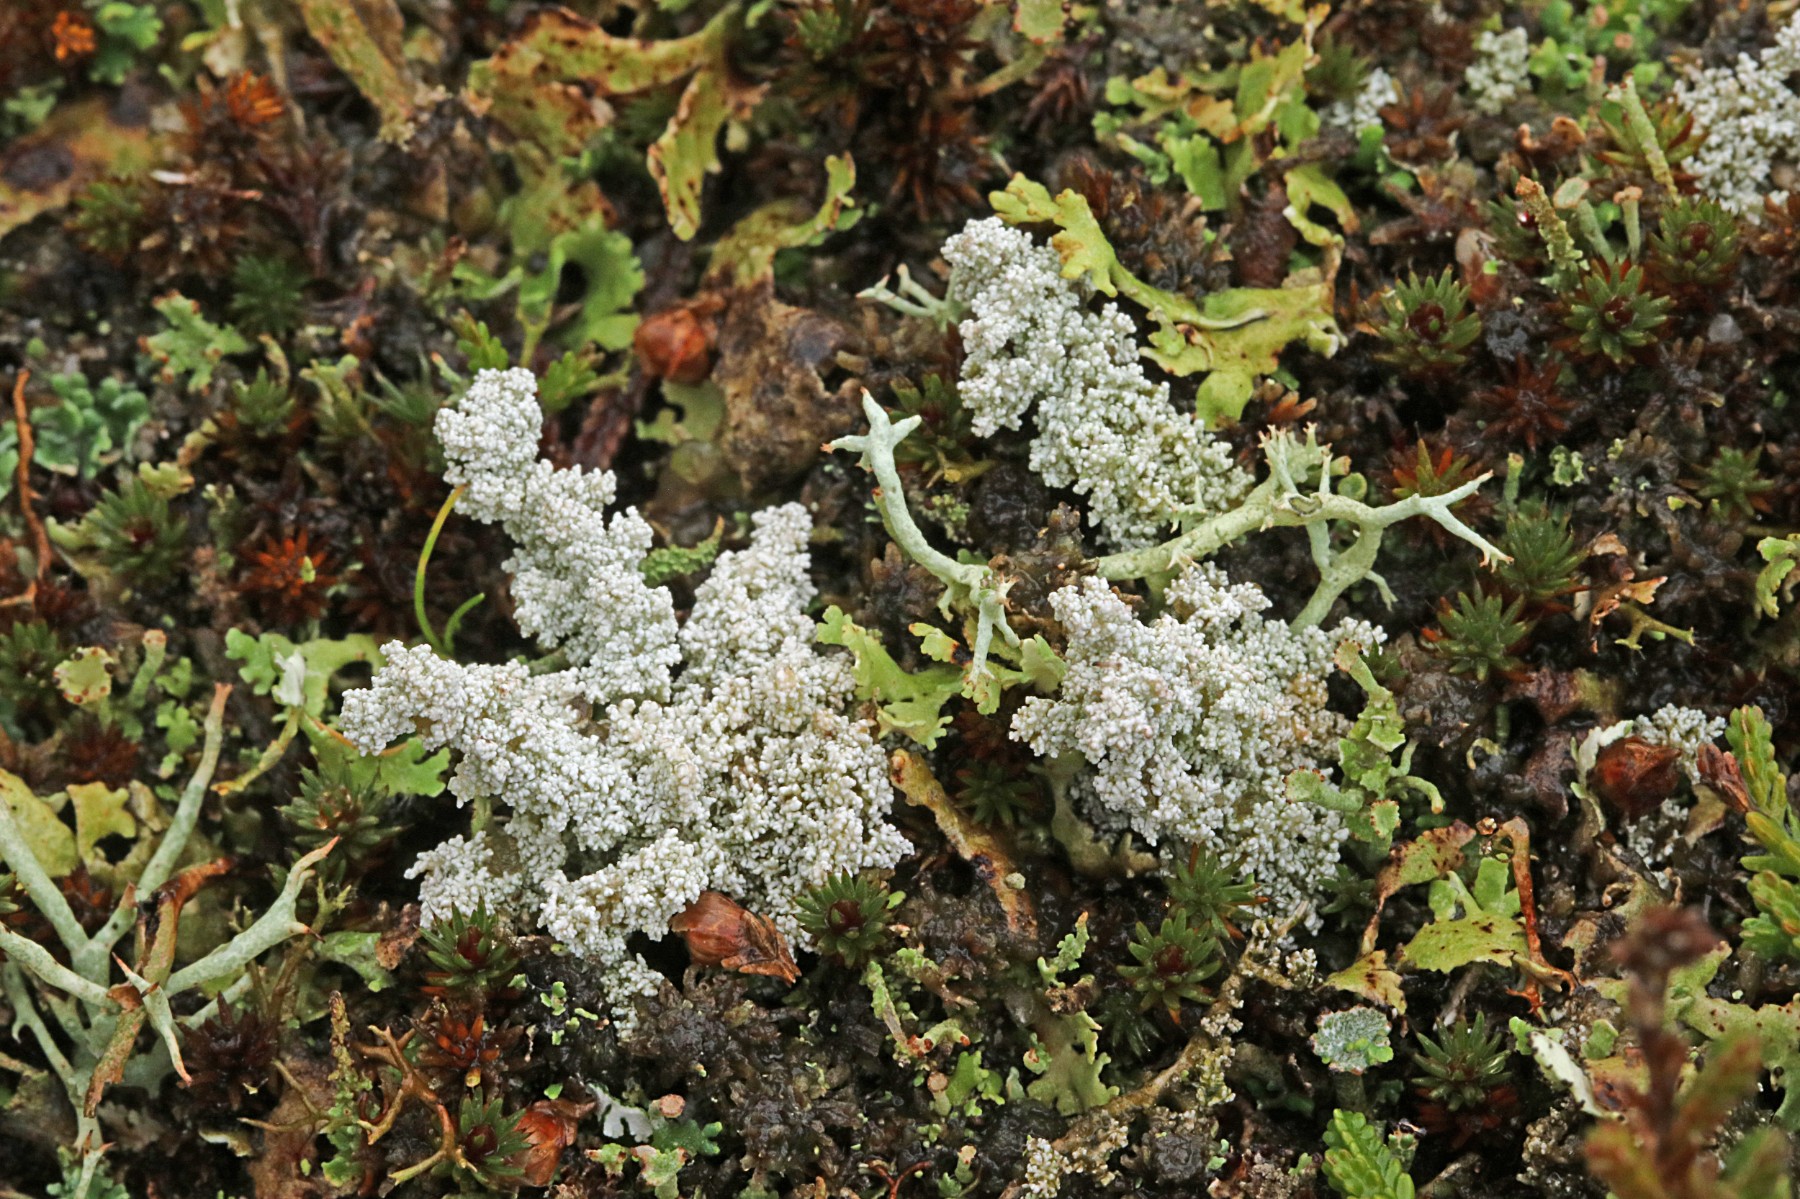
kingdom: Fungi
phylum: Ascomycota
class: Lecanoromycetes
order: Lecanorales
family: Stereocaulaceae
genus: Stereocaulon
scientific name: Stereocaulon saxatile
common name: klit-korallav
